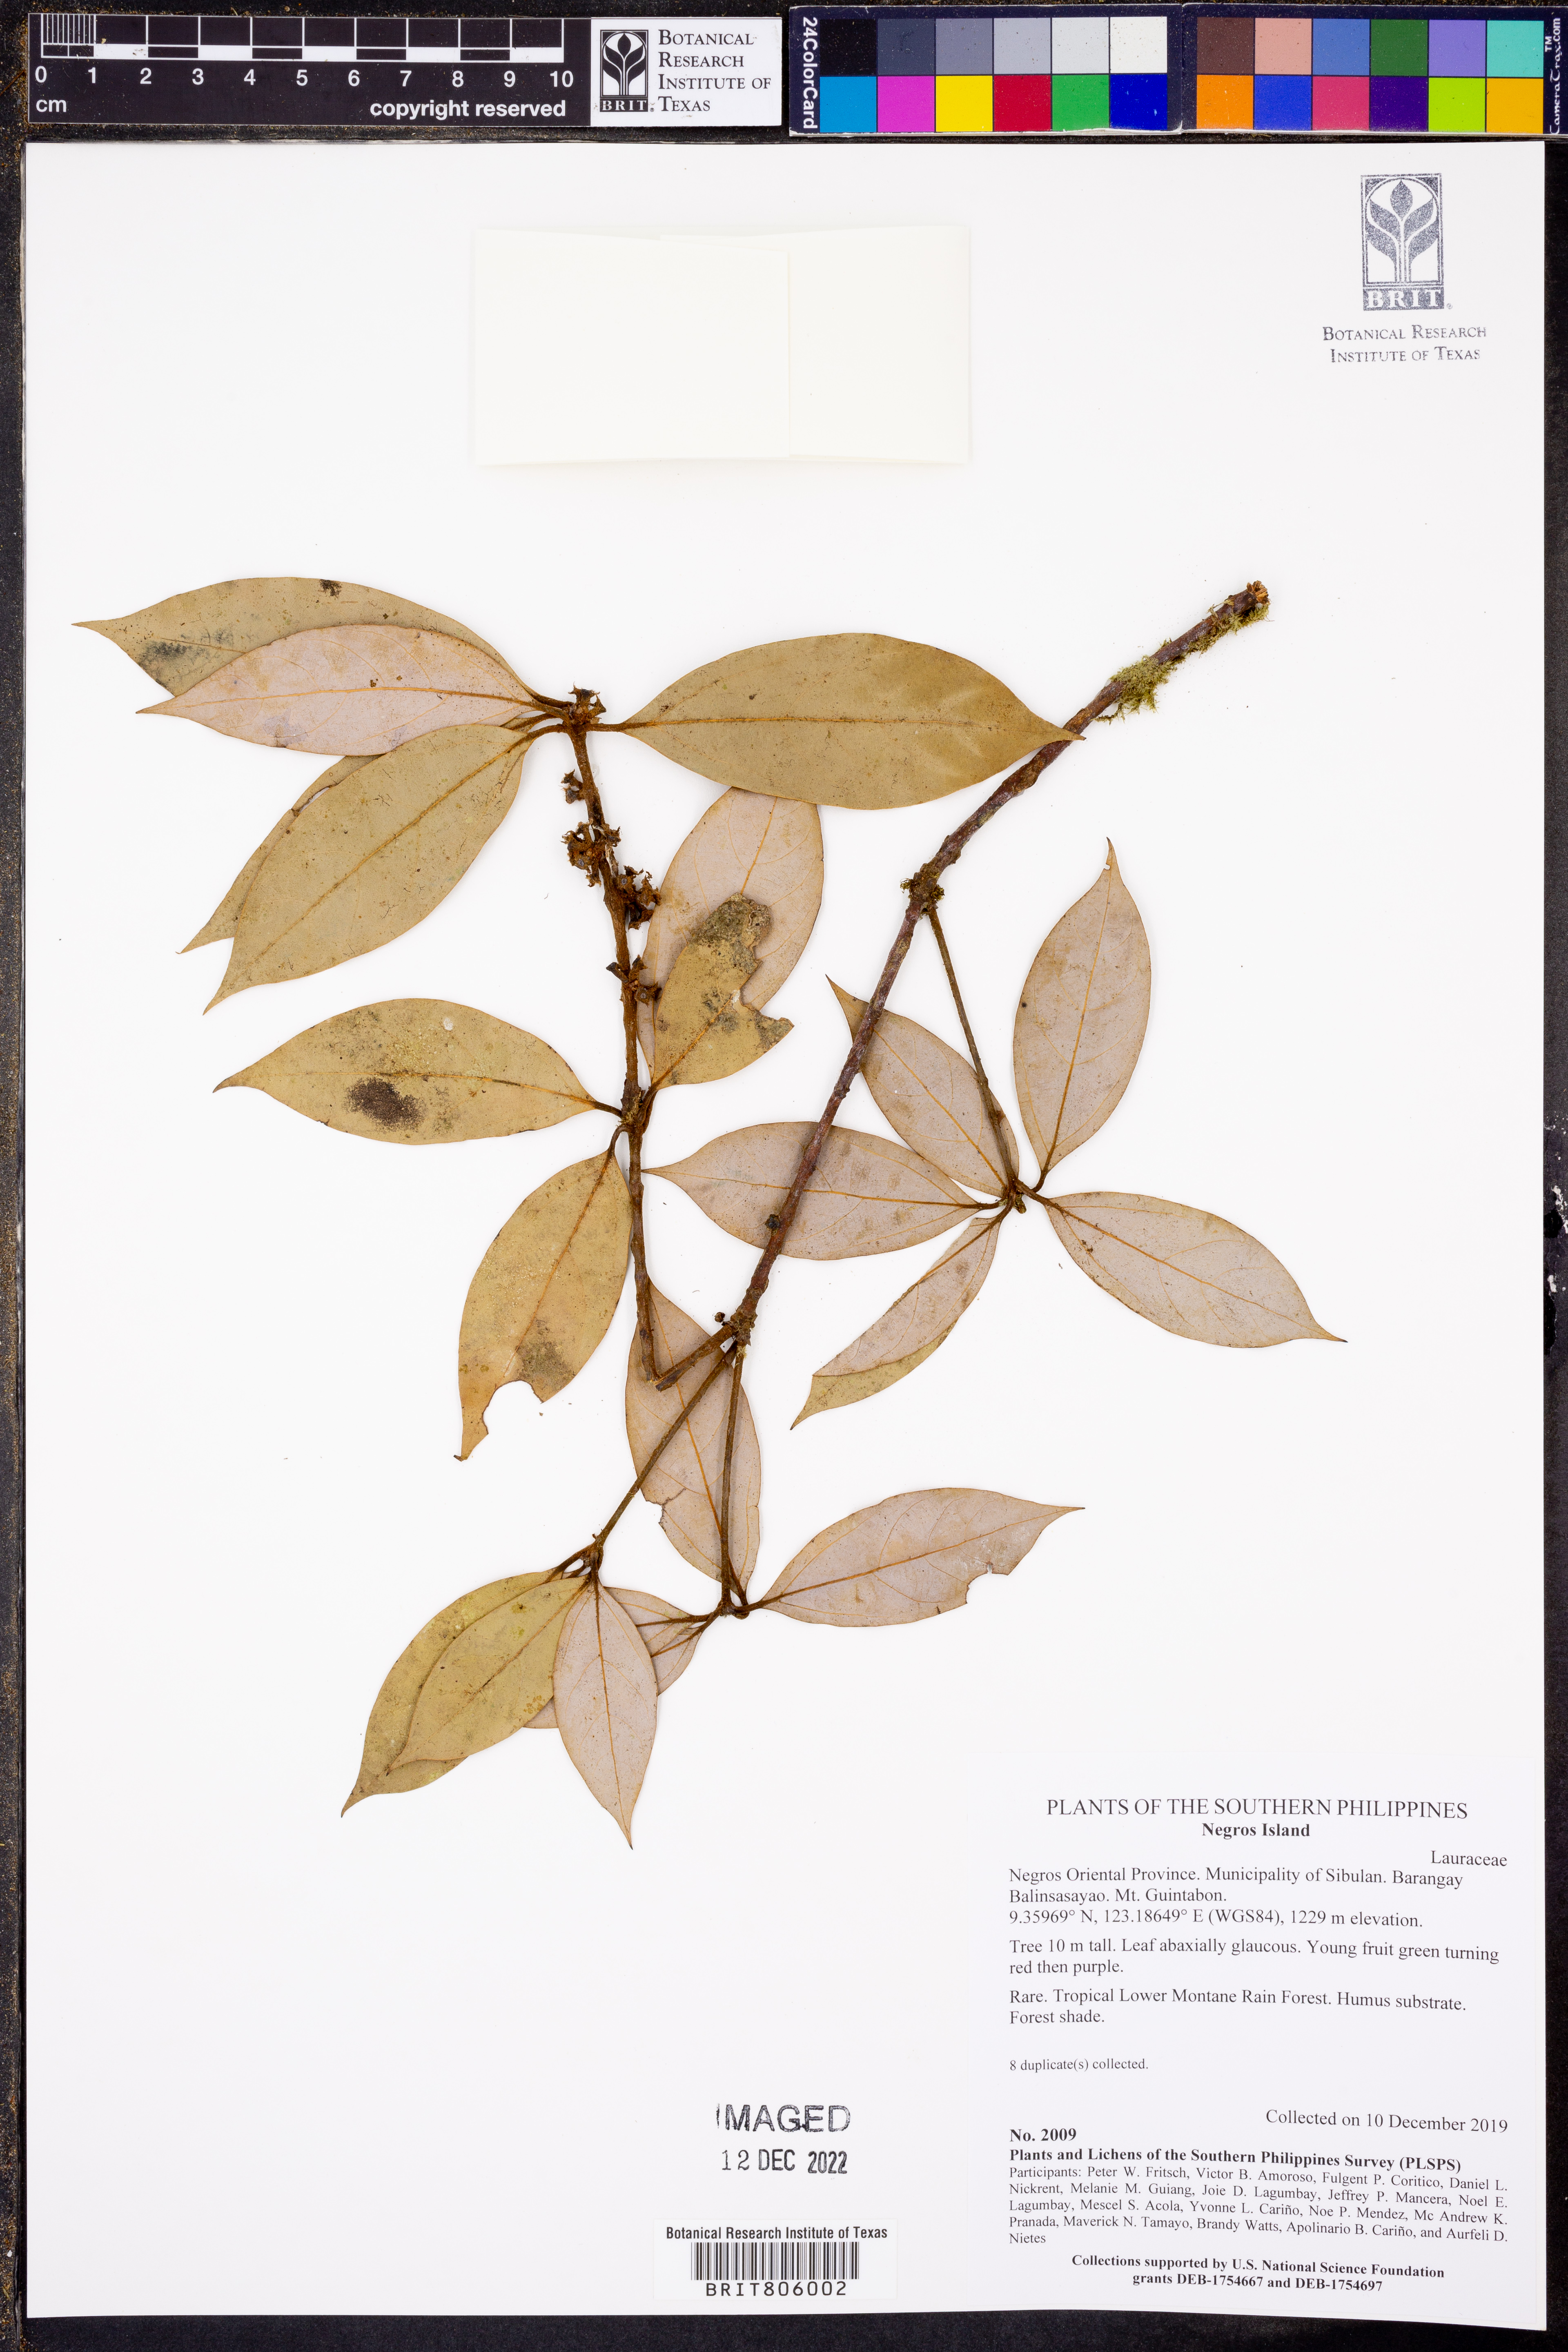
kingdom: Plantae
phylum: Tracheophyta
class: Magnoliopsida
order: Laurales
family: Lauraceae
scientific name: Lauraceae
